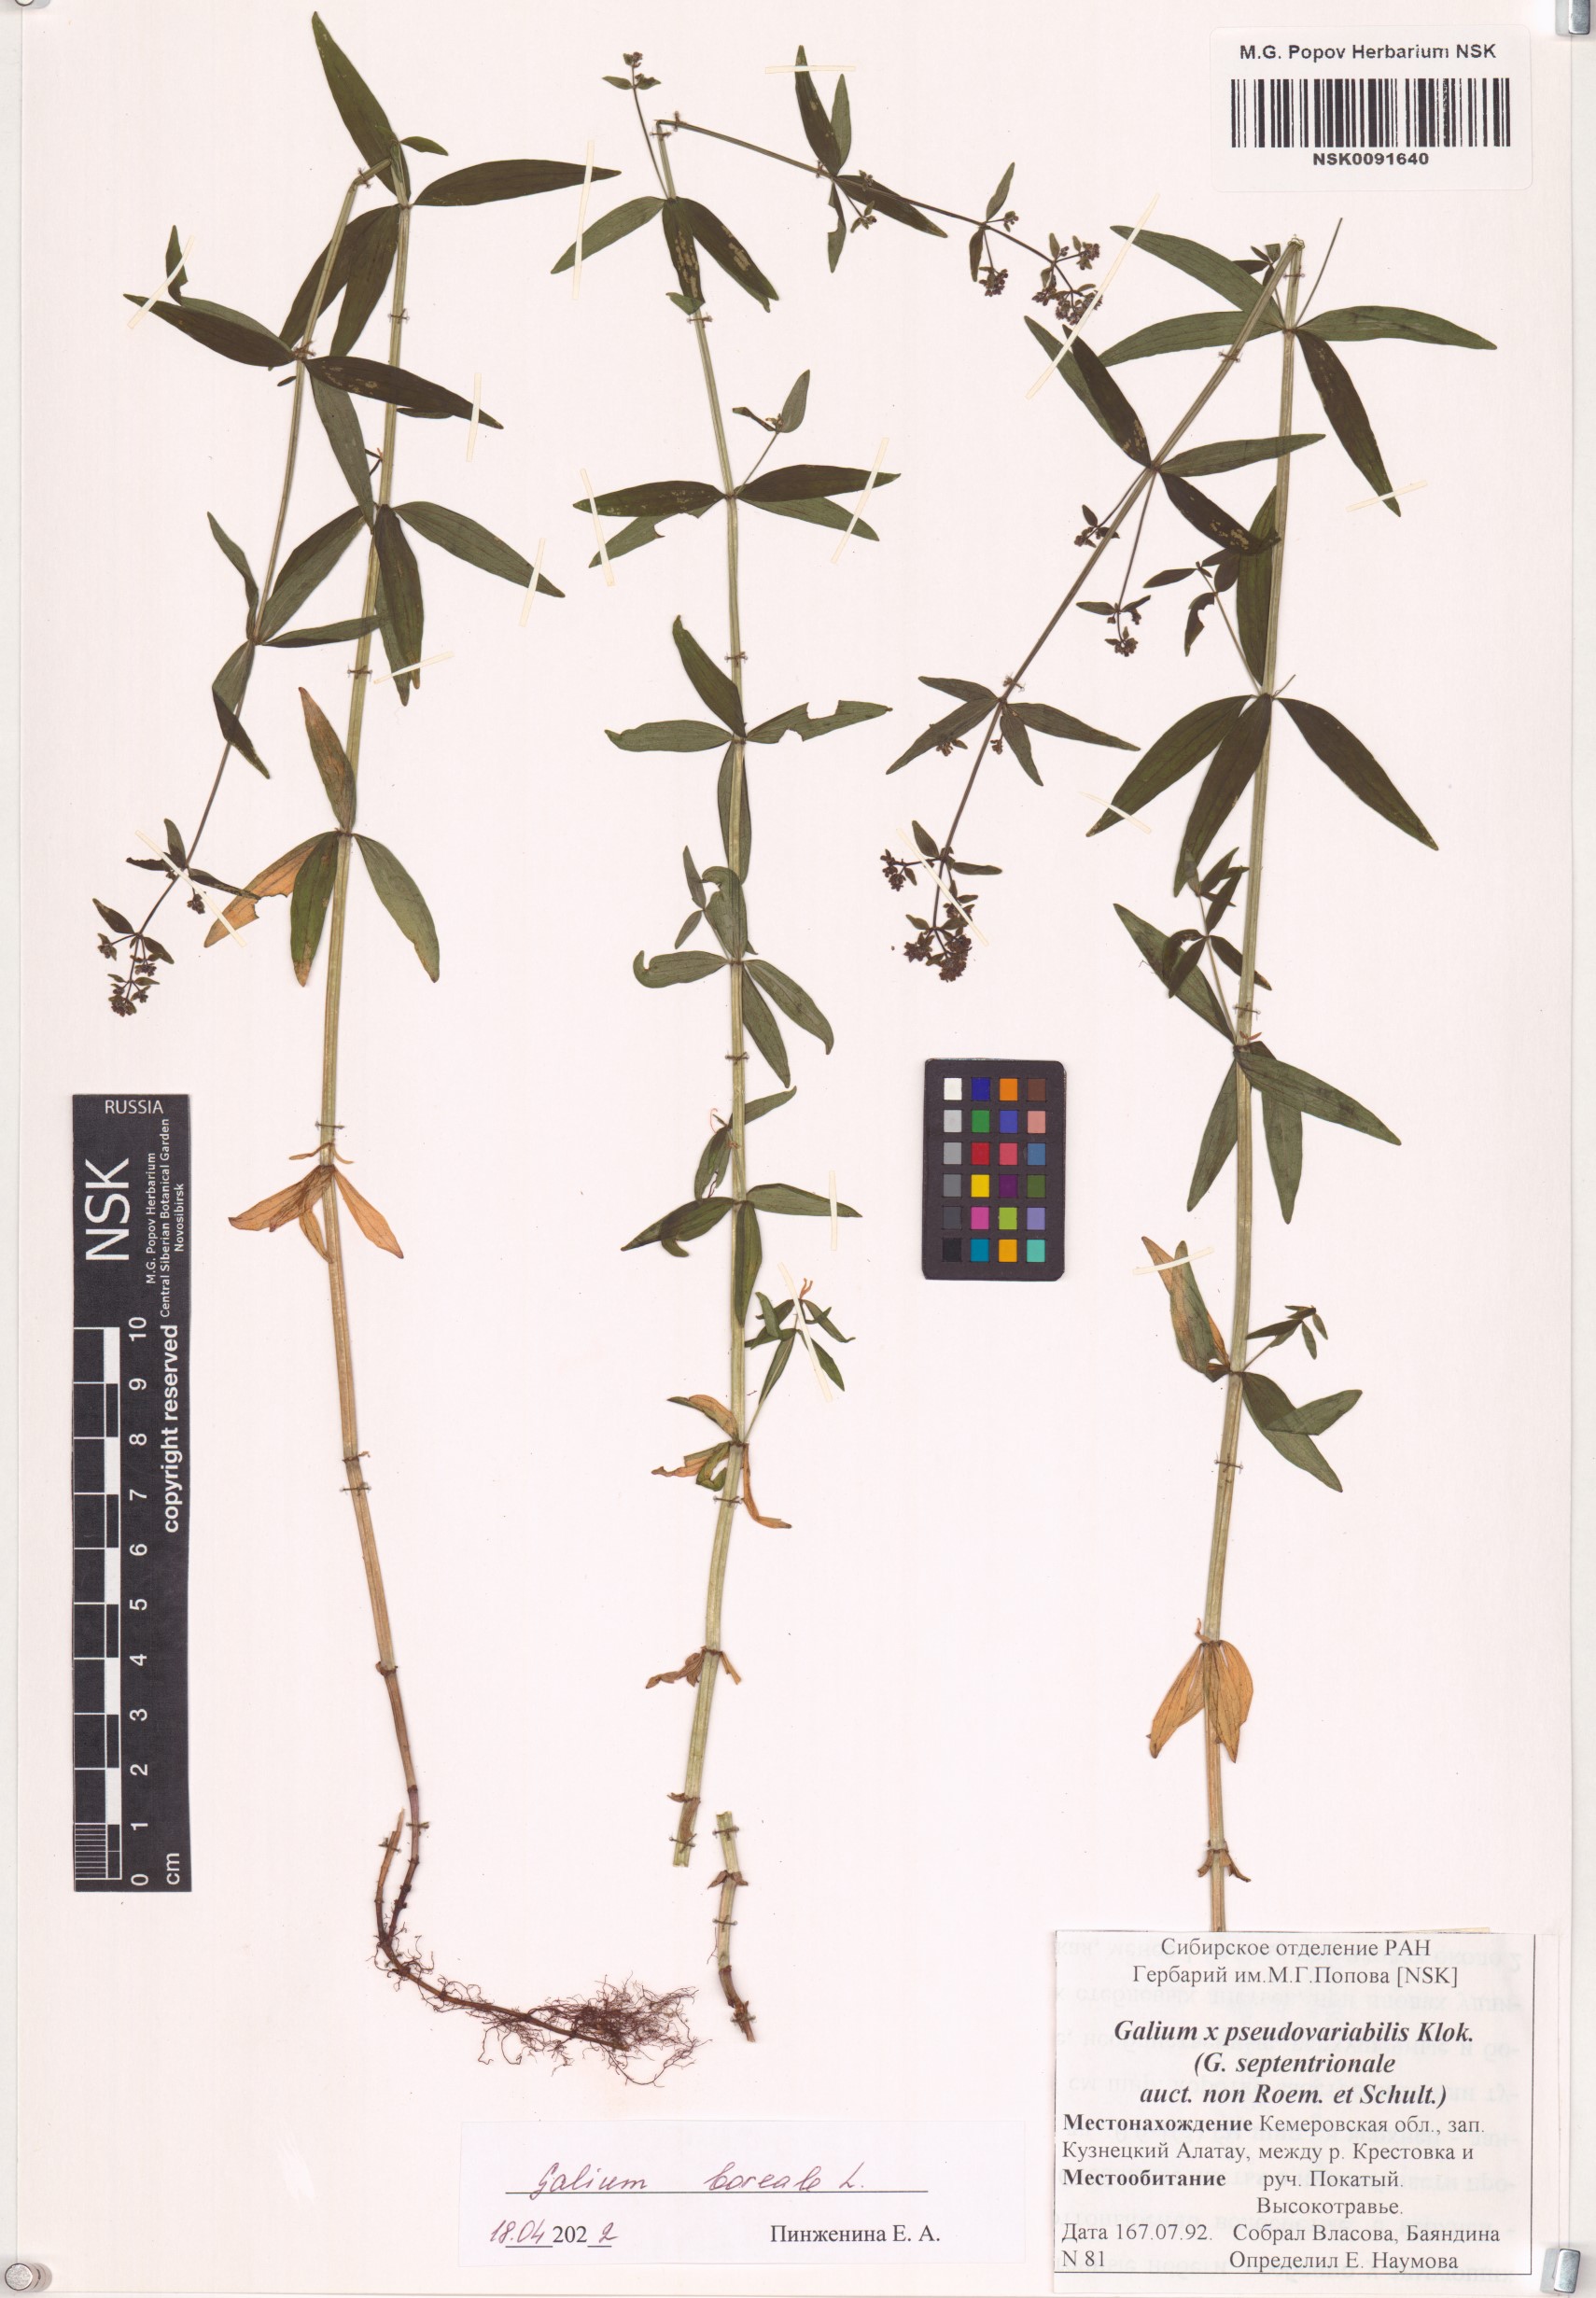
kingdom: Plantae
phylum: Tracheophyta
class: Magnoliopsida
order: Gentianales
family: Rubiaceae
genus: Galium
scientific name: Galium boreale
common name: Northern bedstraw
